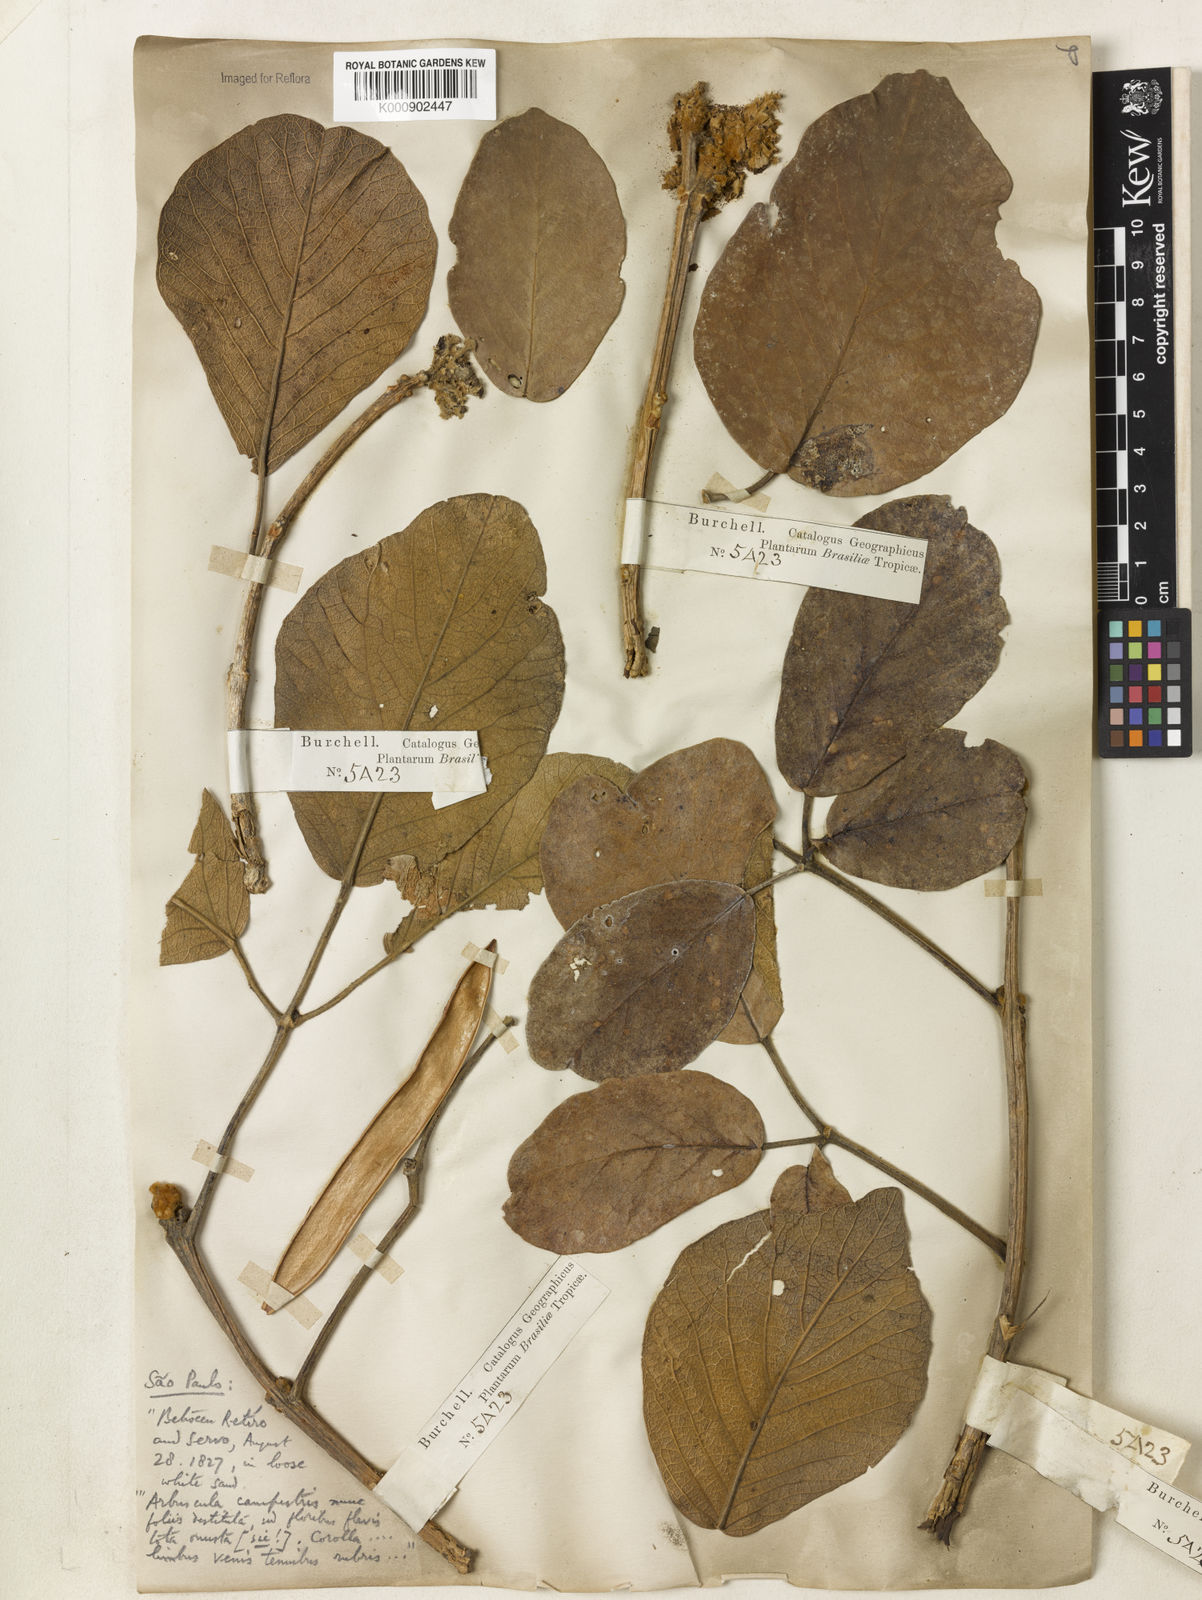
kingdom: Plantae
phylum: Tracheophyta
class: Magnoliopsida
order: Lamiales
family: Bignoniaceae
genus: Handroanthus
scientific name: Handroanthus ochraceus
